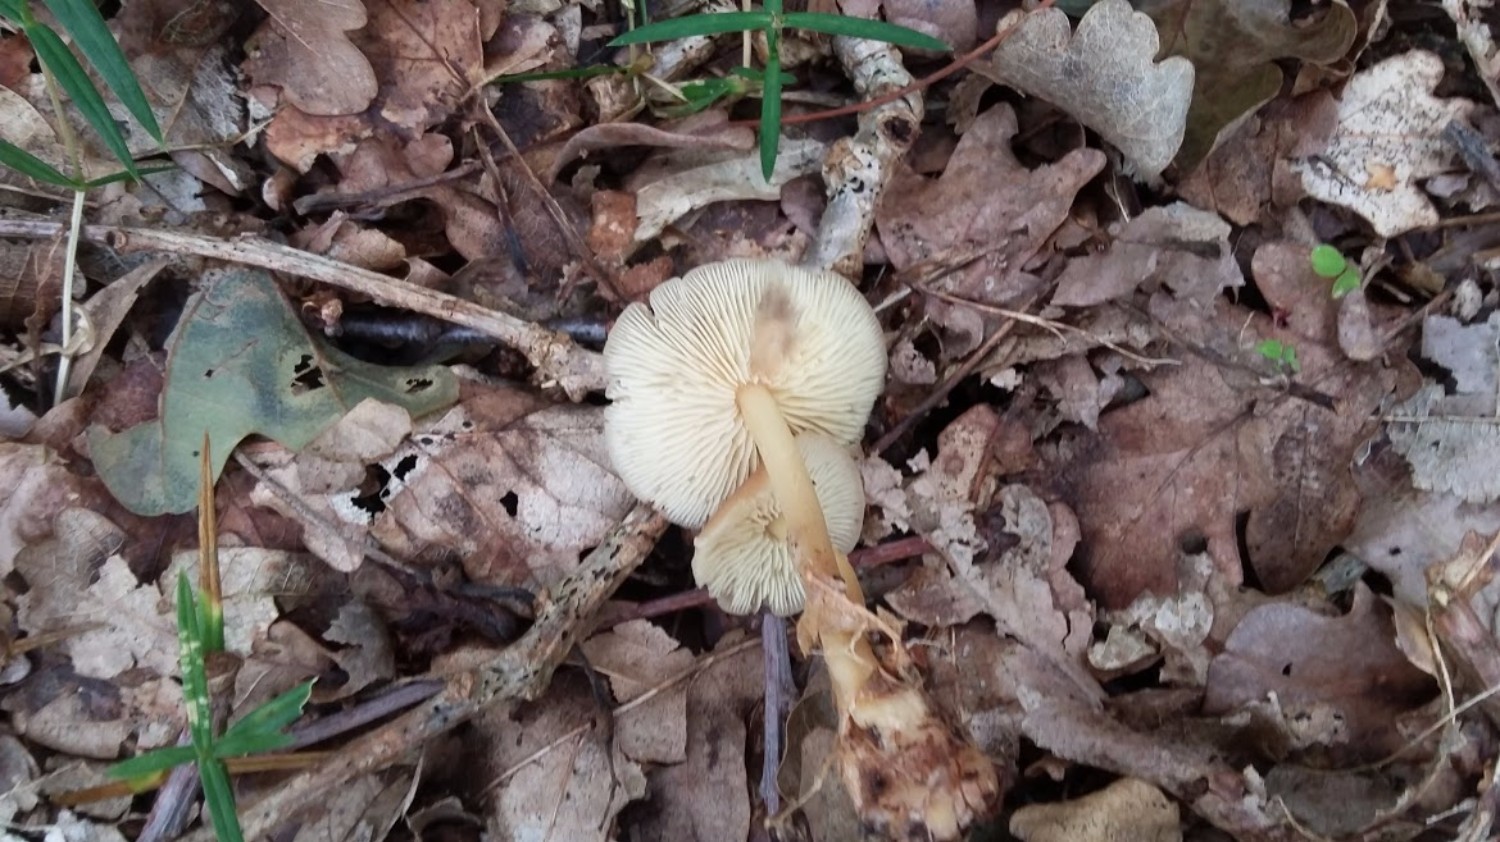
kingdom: Fungi
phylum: Basidiomycota
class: Agaricomycetes
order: Agaricales
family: Omphalotaceae
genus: Gymnopus
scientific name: Gymnopus aquosus
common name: bleg fladhat
